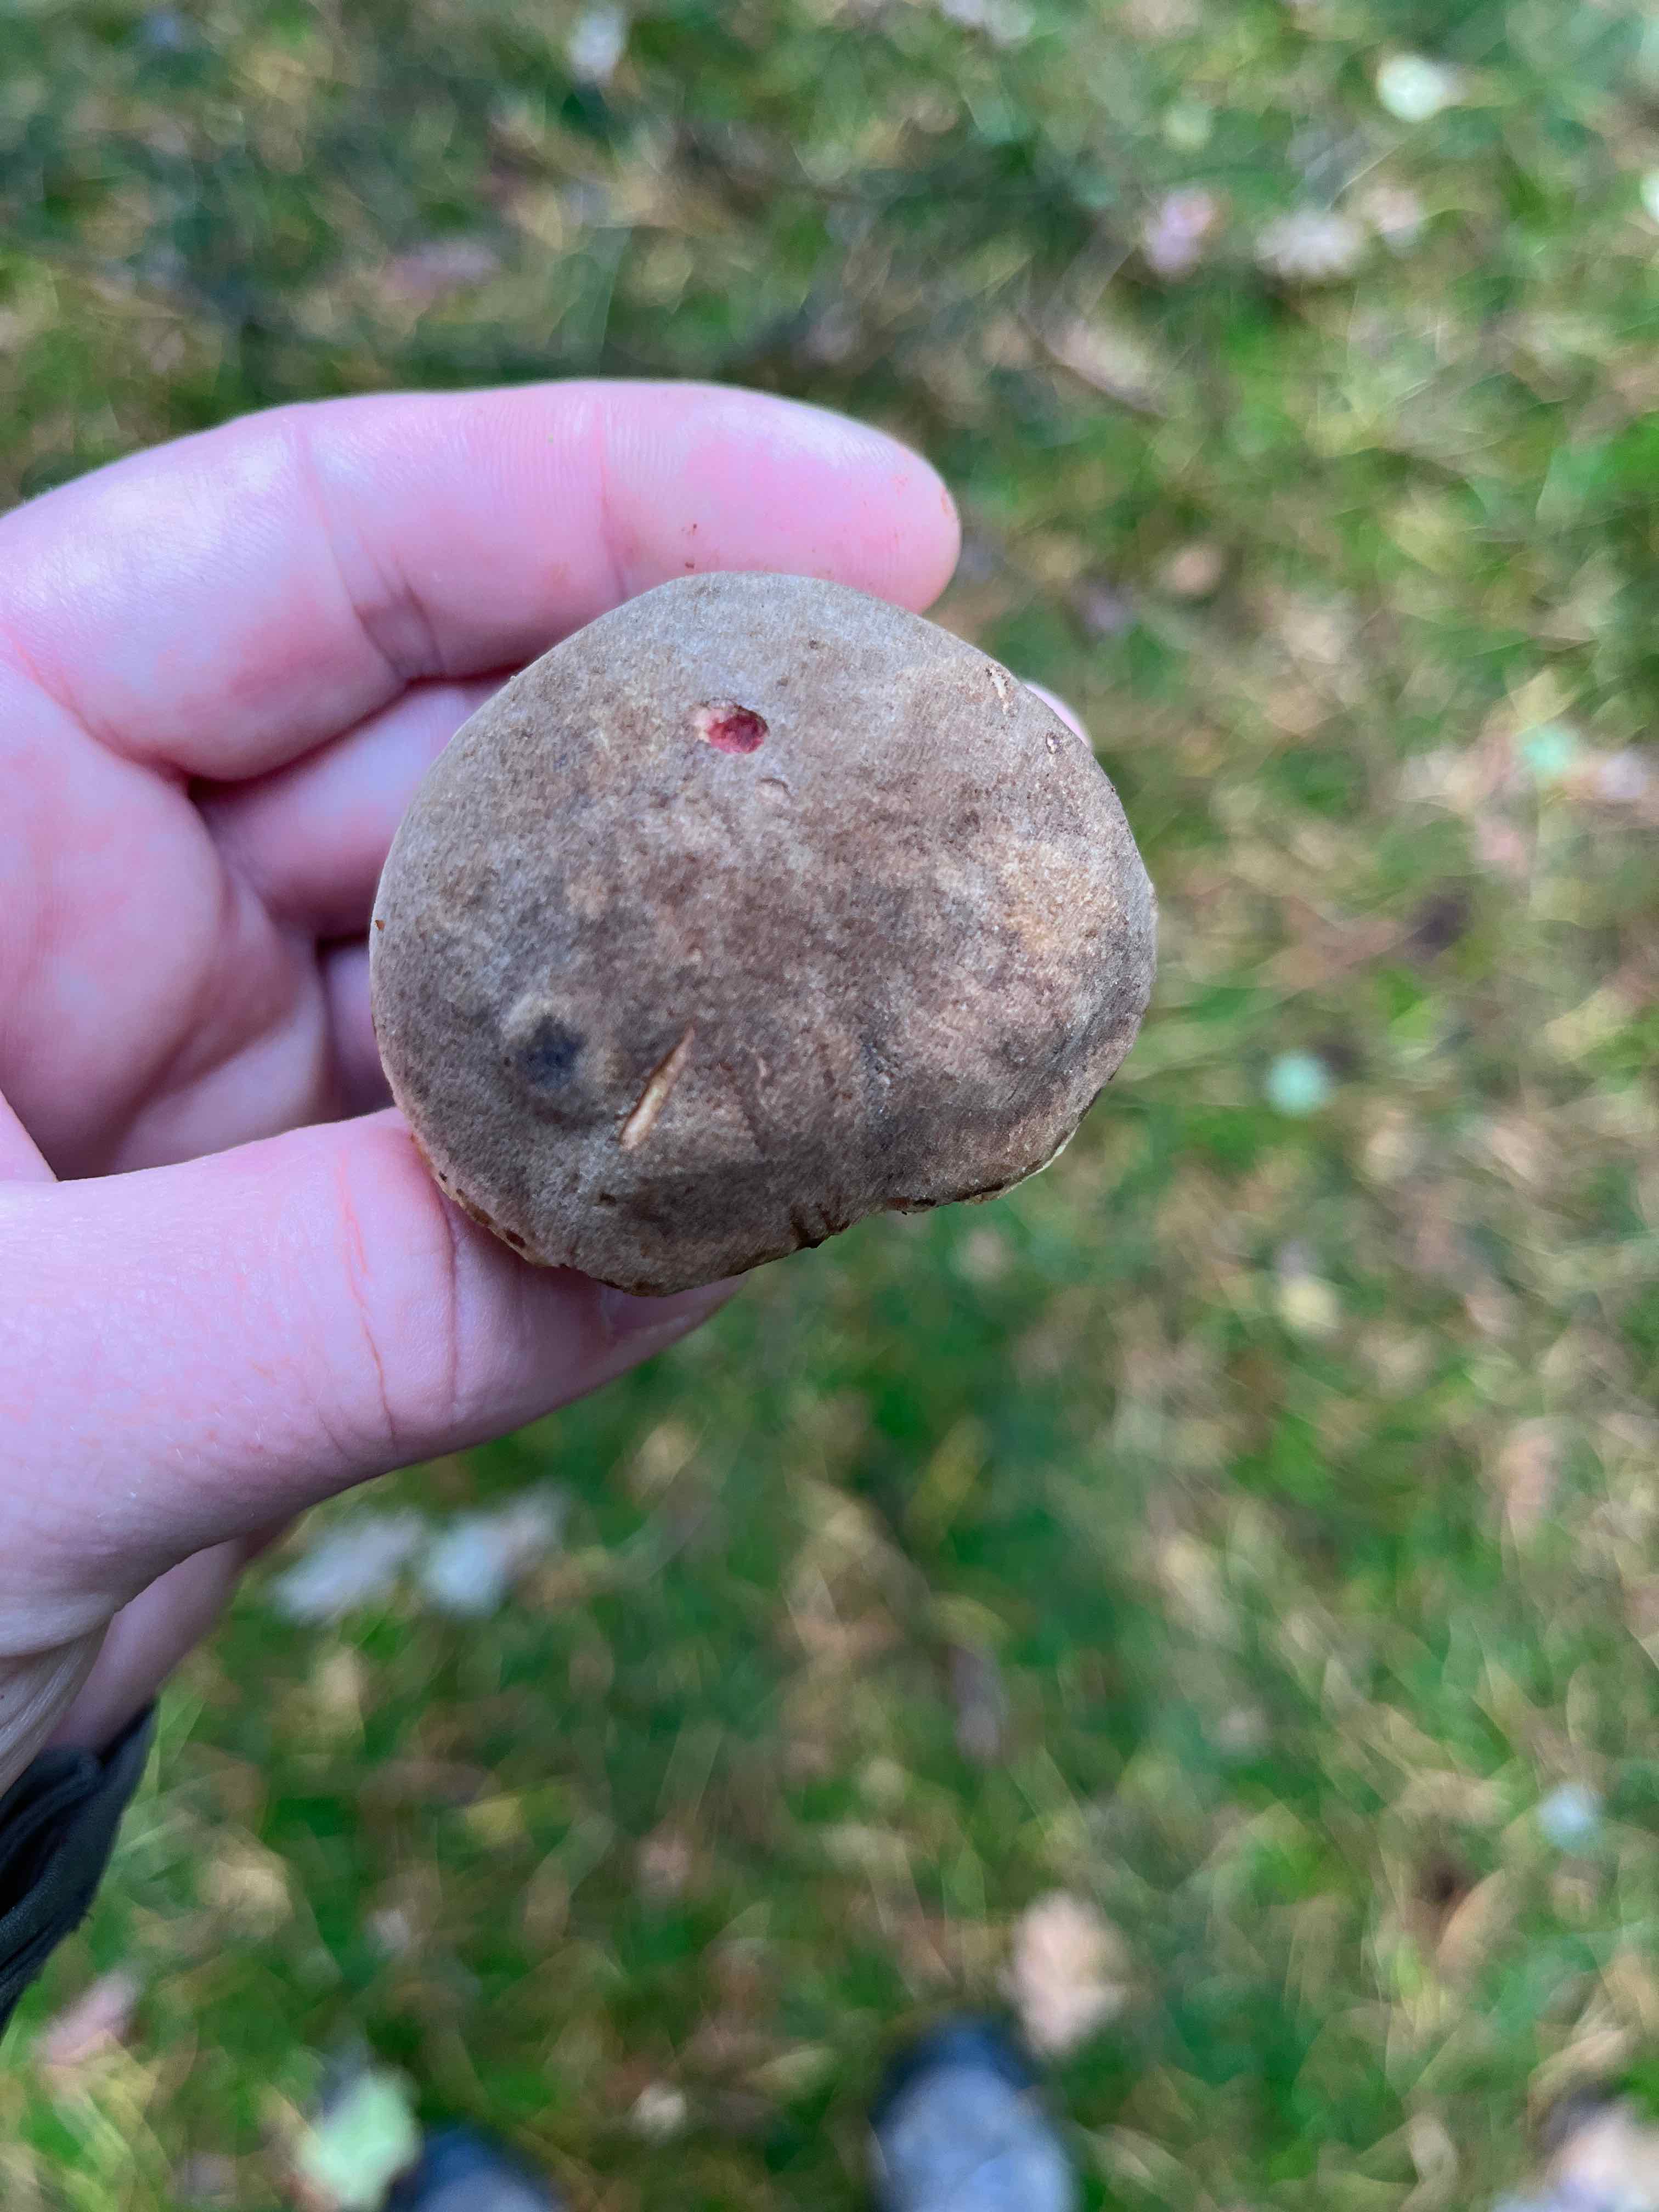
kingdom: Fungi
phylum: Basidiomycota
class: Agaricomycetes
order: Boletales
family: Boletaceae
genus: Xerocomellus
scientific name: Xerocomellus
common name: dværgrørhat
